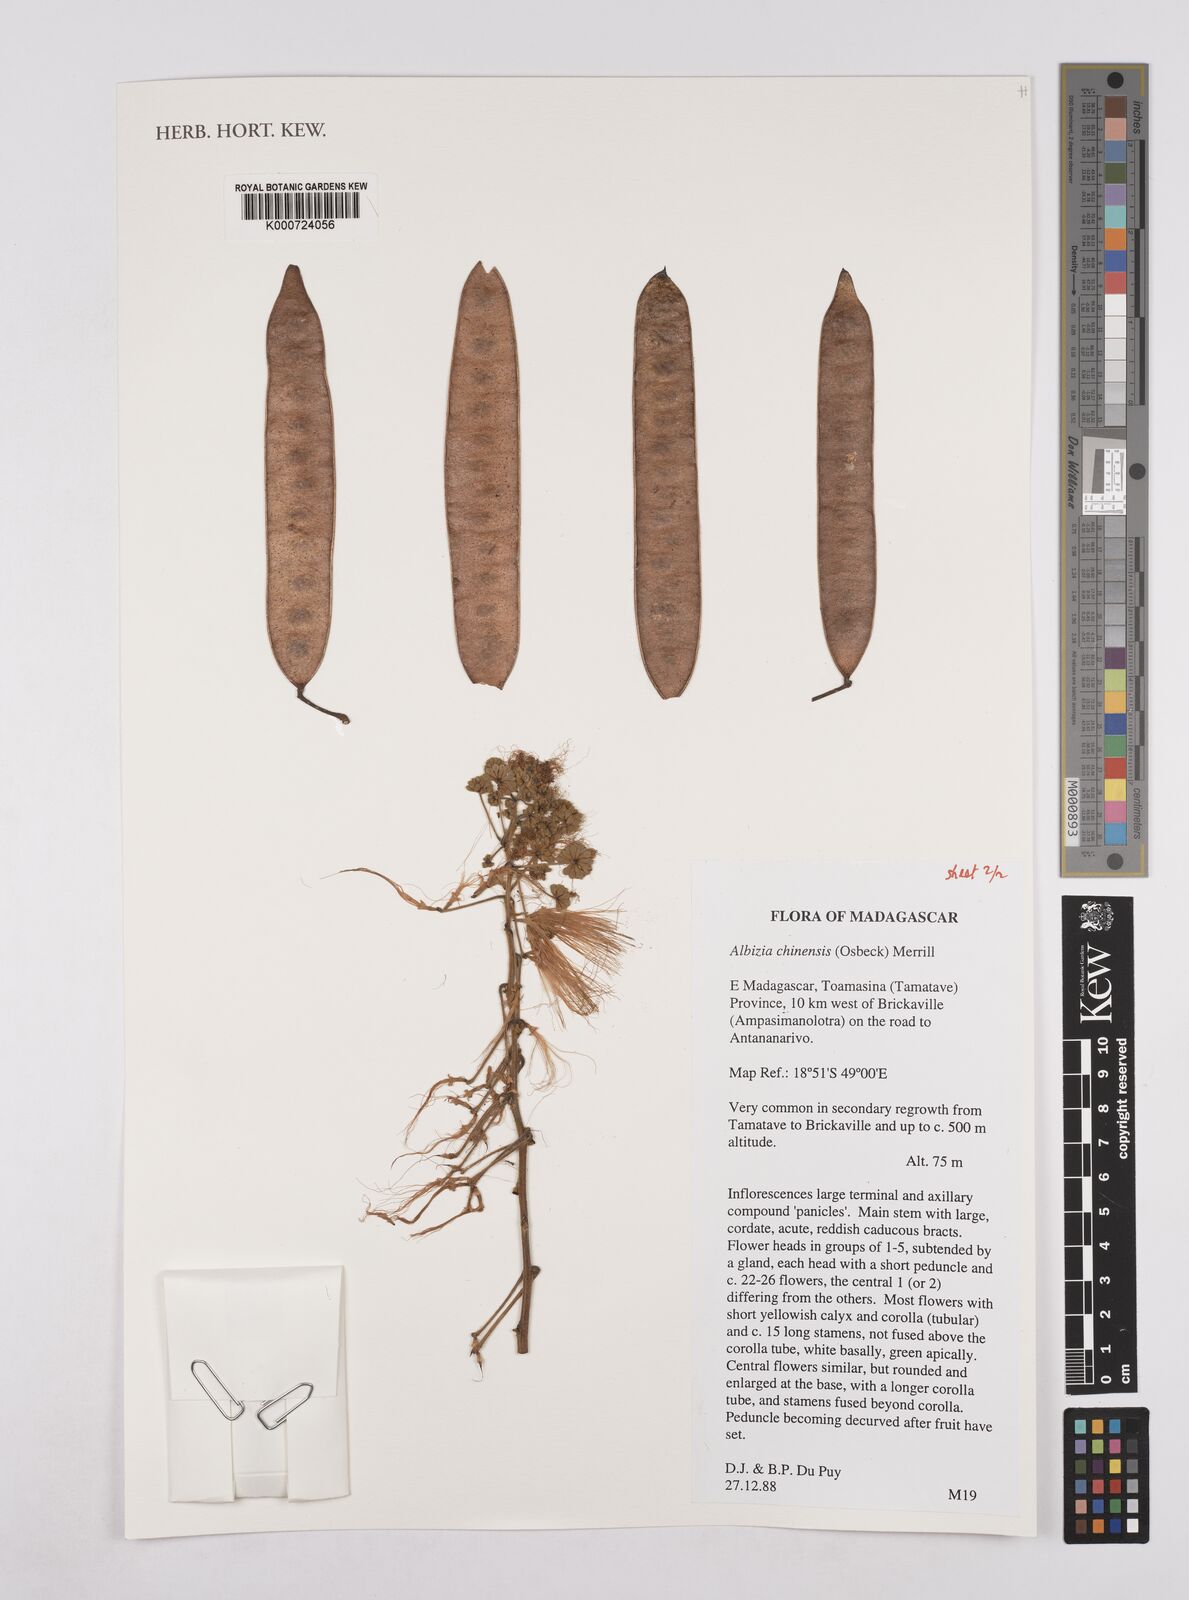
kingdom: Plantae
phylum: Tracheophyta
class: Magnoliopsida
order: Fabales
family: Fabaceae
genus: Albizia
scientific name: Albizia chinensis
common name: Chinese albizia
